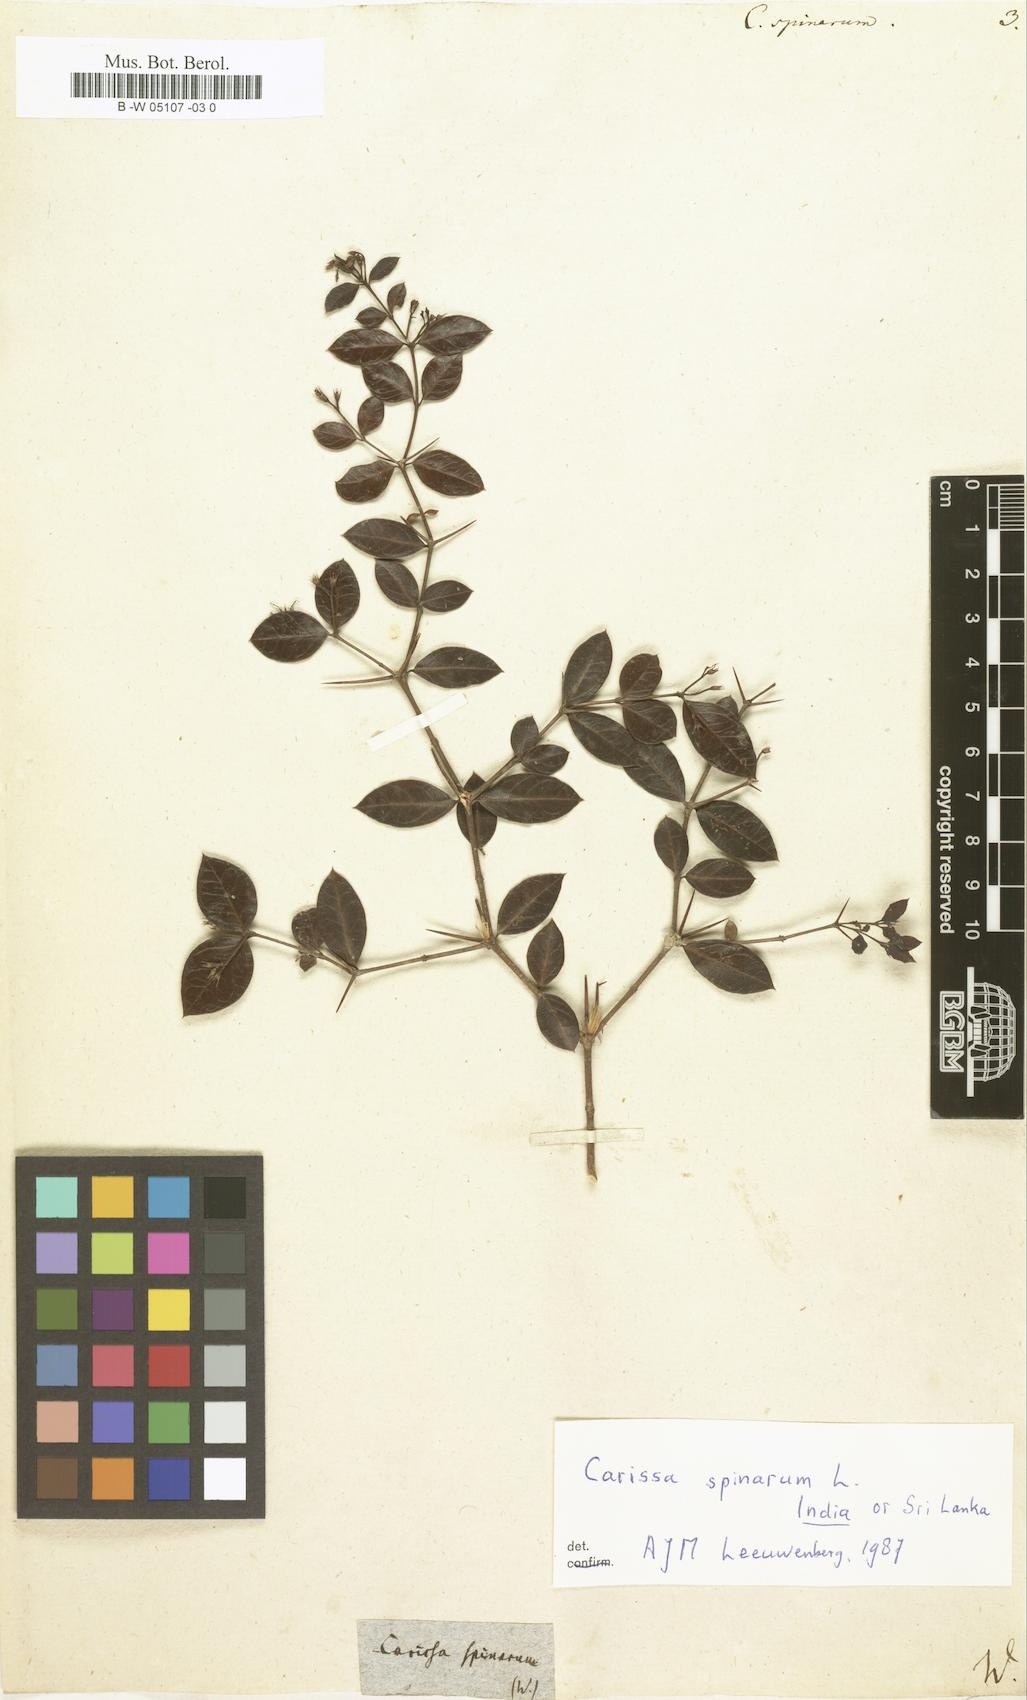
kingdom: Plantae
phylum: Tracheophyta
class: Magnoliopsida
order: Gentianales
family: Apocynaceae
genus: Carissa
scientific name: Carissa spinarum
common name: Egyptian carissa
